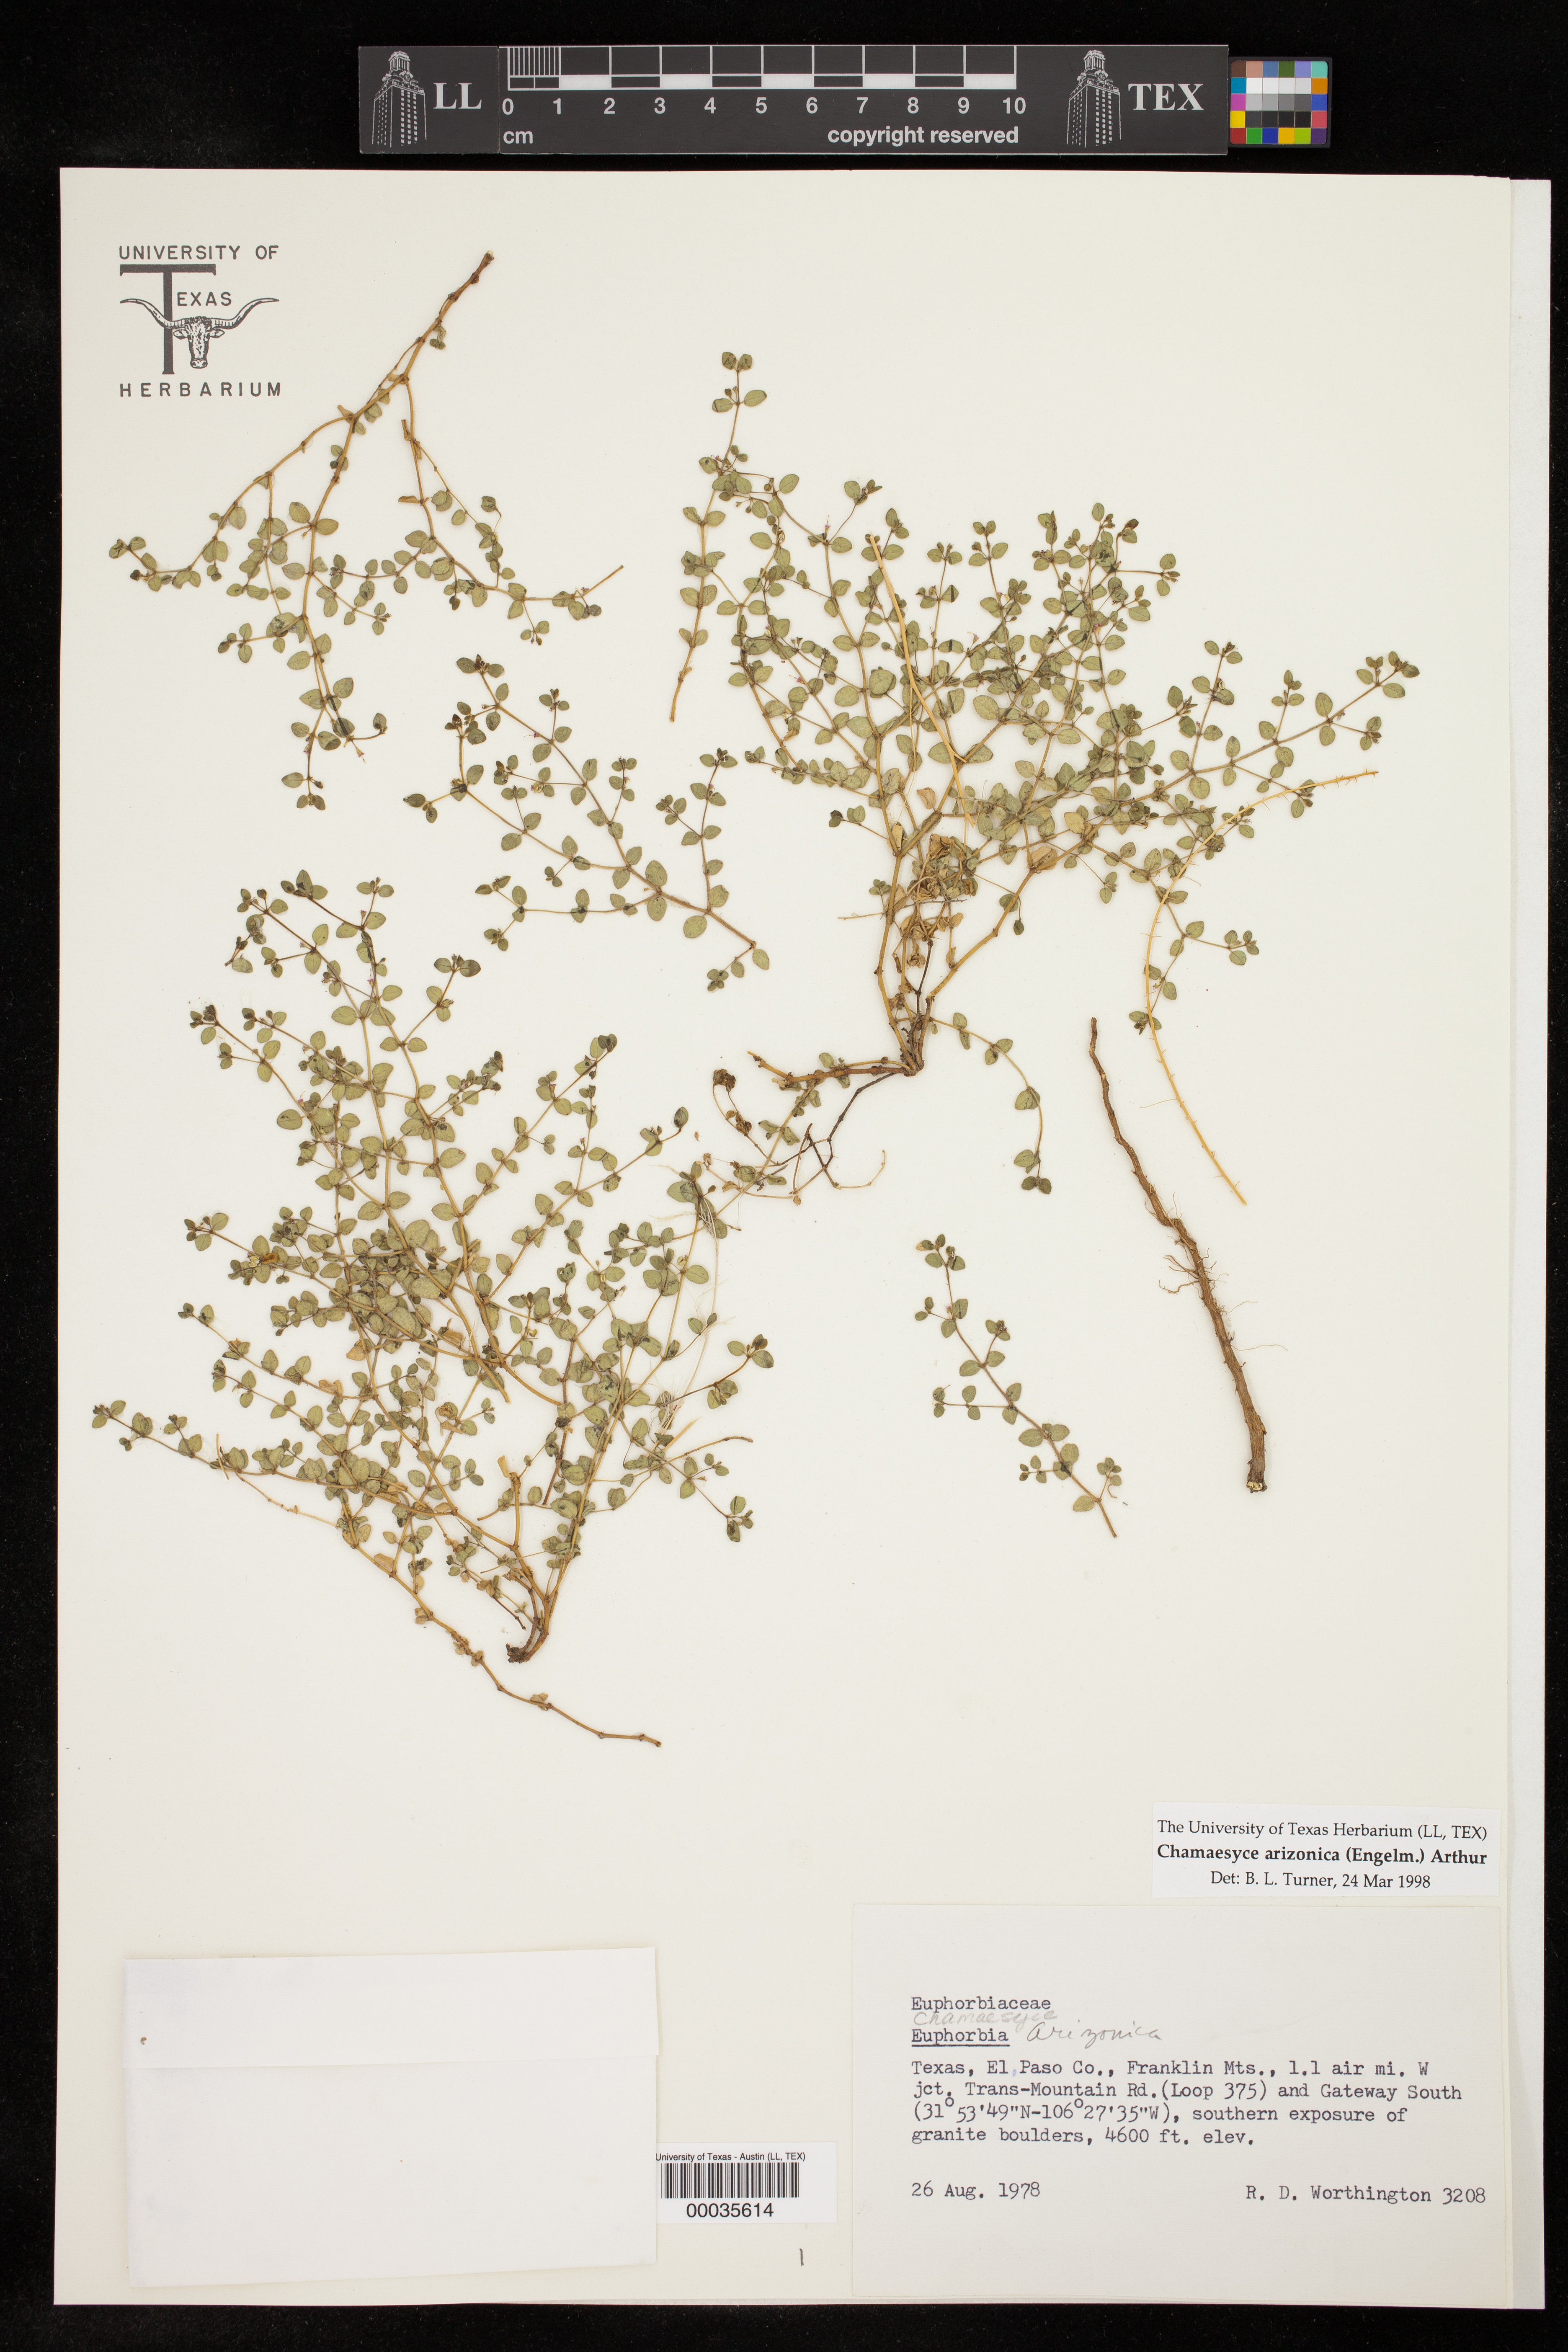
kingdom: Plantae
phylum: Tracheophyta
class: Magnoliopsida
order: Malpighiales
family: Euphorbiaceae
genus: Euphorbia
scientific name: Euphorbia arizonica
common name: Arizona spurge
